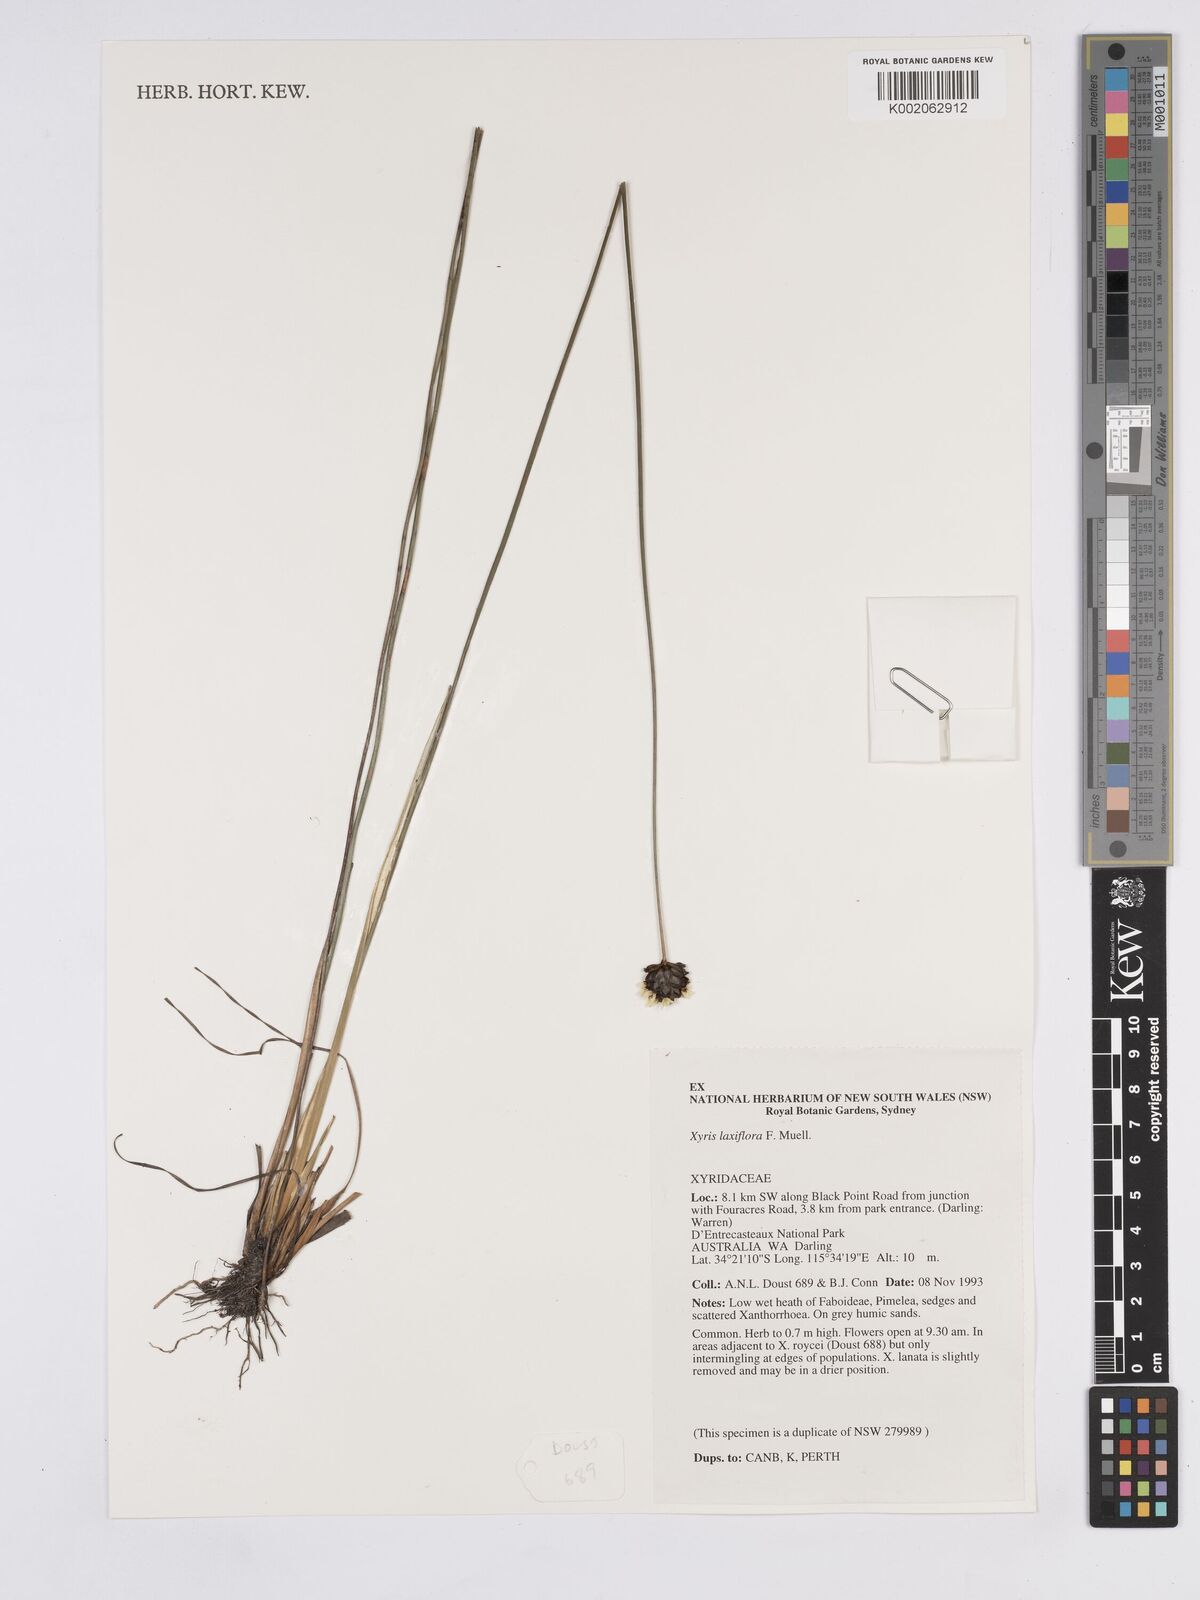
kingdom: Plantae
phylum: Tracheophyta
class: Liliopsida
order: Poales
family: Xyridaceae
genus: Xyris
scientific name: Xyris laxiflora
